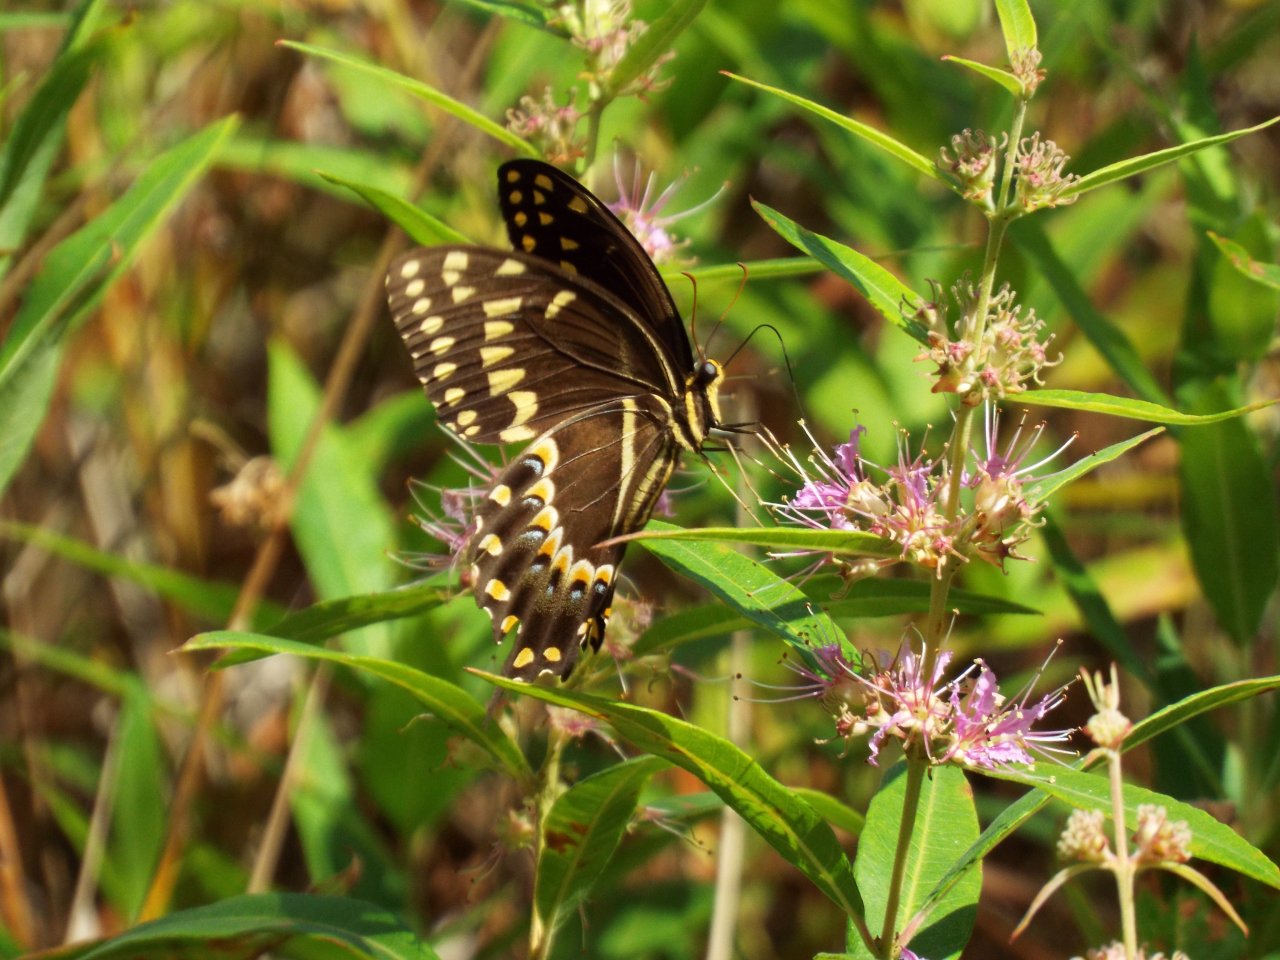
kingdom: Animalia
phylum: Arthropoda
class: Insecta
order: Lepidoptera
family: Papilionidae
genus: Pterourus
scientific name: Pterourus palamedes
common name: Palamedes Swallowtail
